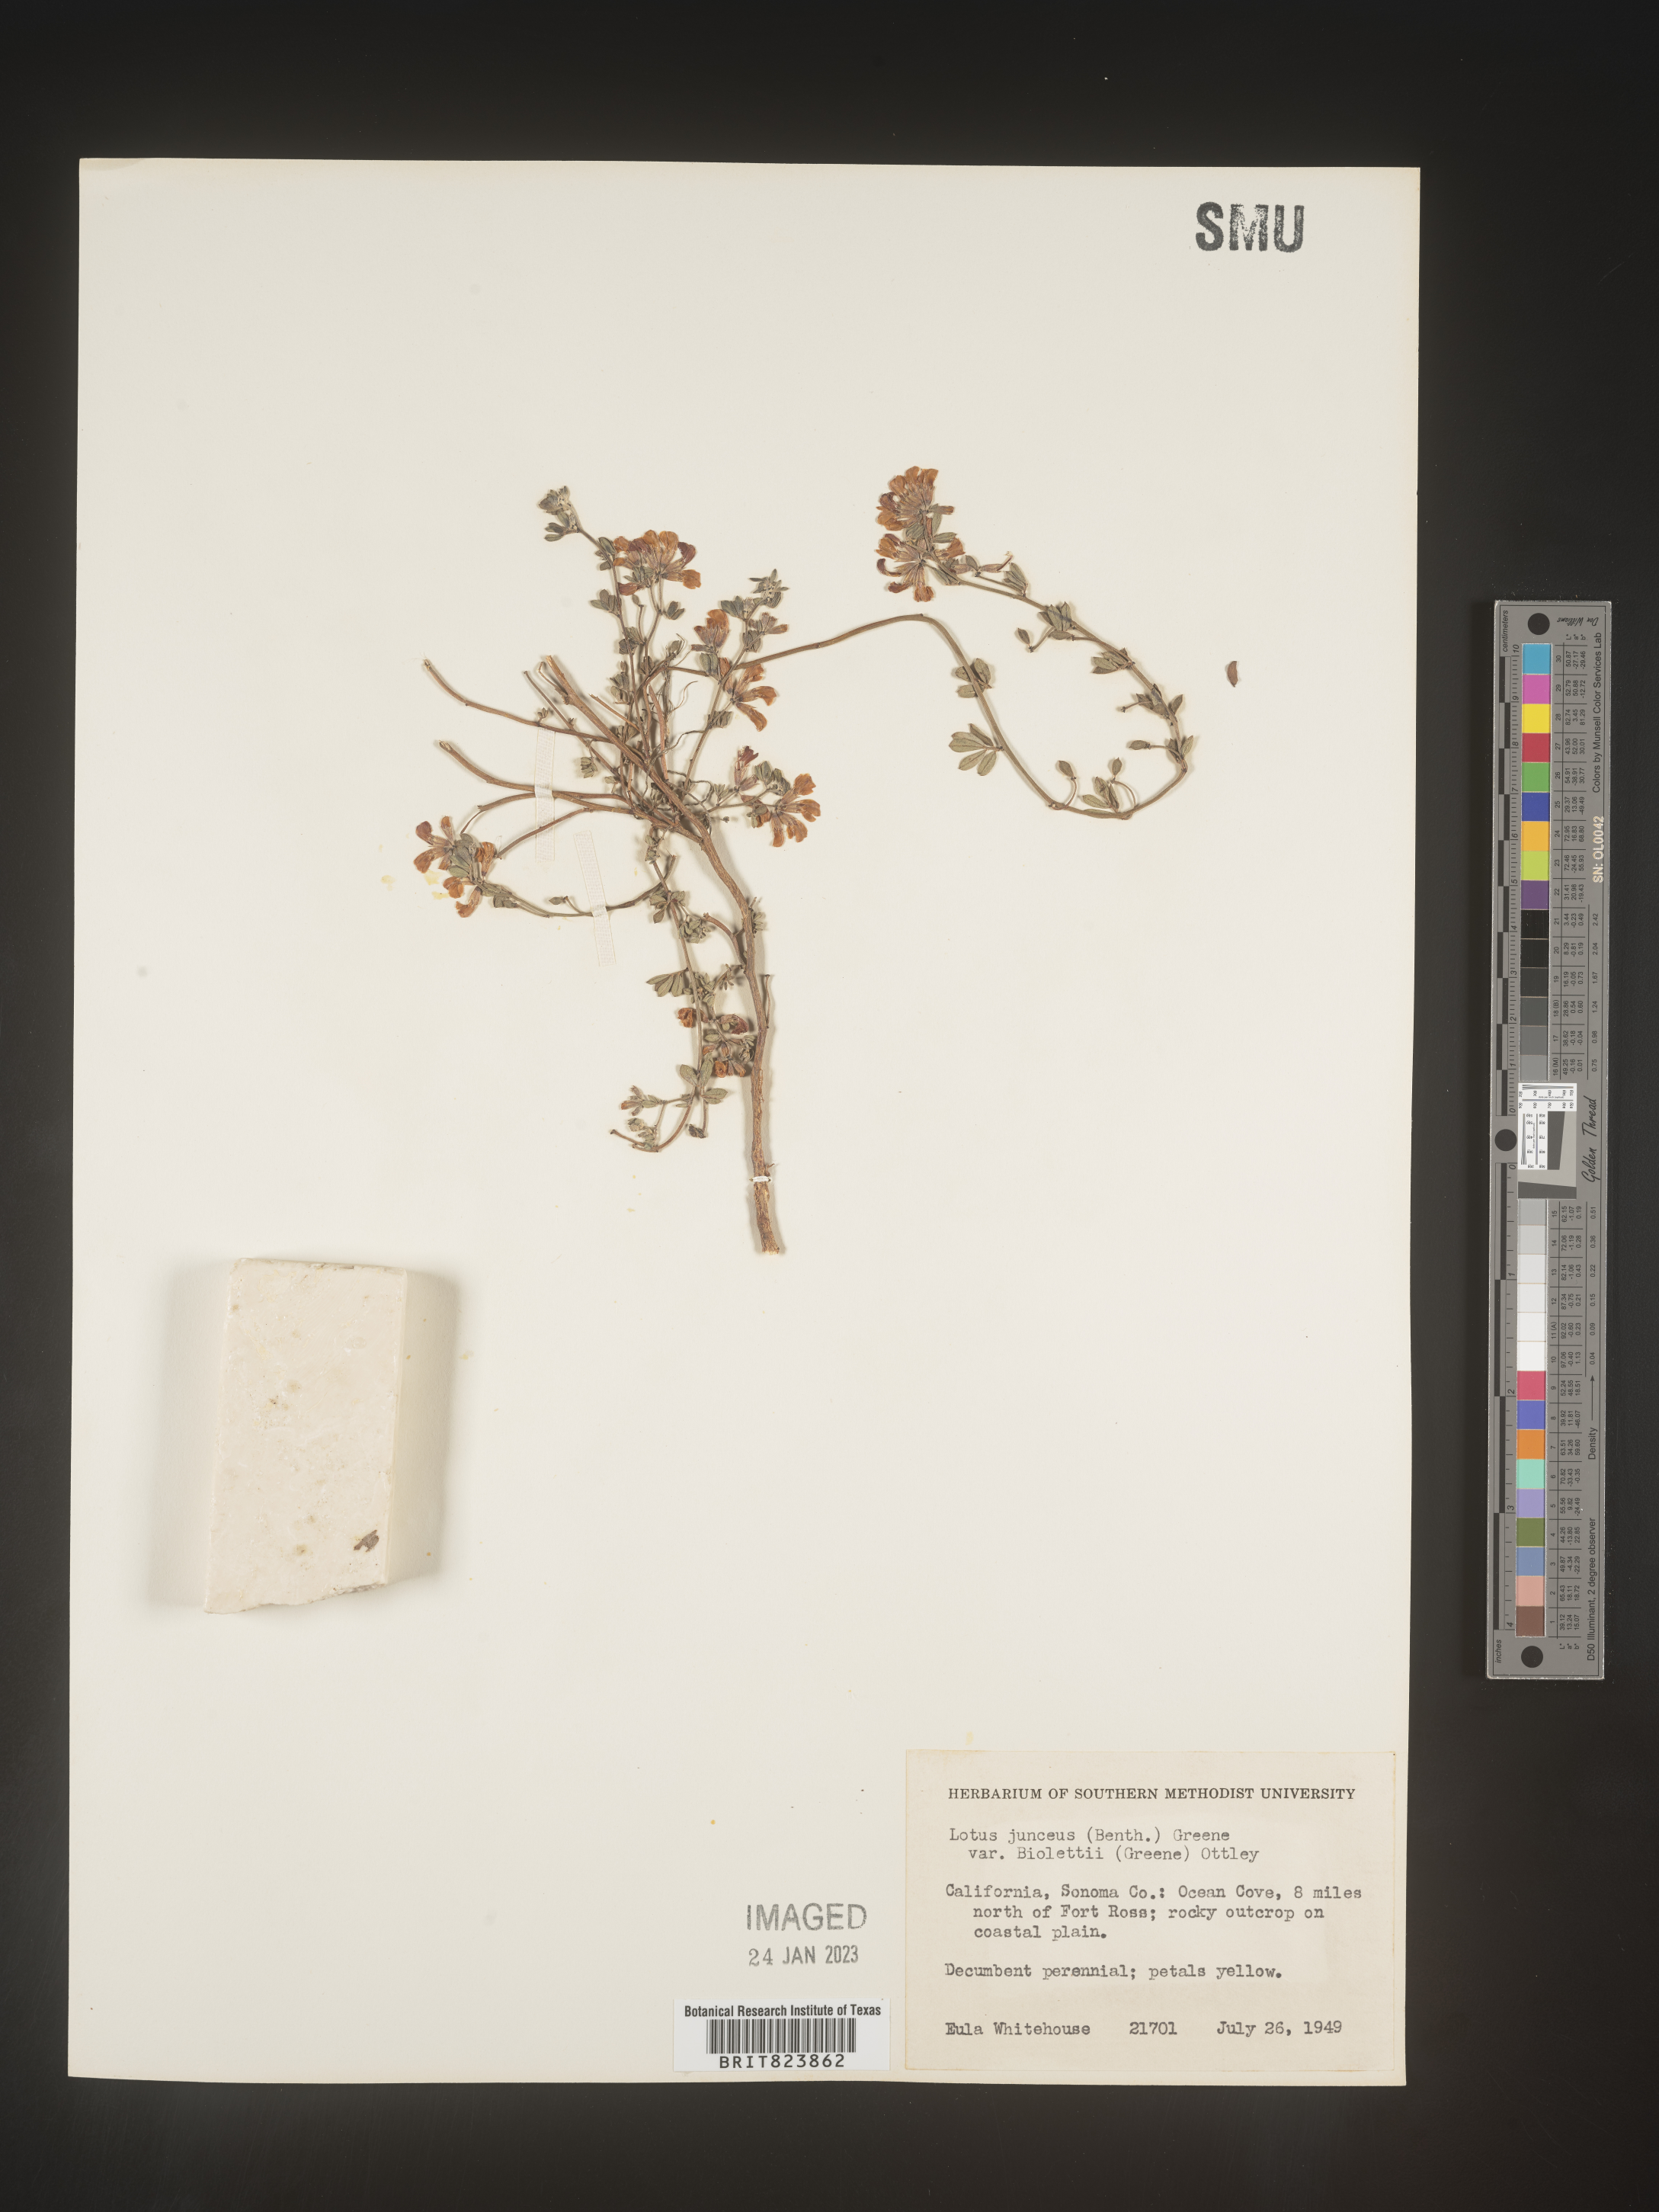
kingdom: Plantae
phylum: Tracheophyta
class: Magnoliopsida
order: Fabales
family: Fabaceae
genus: Lotus
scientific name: Lotus
